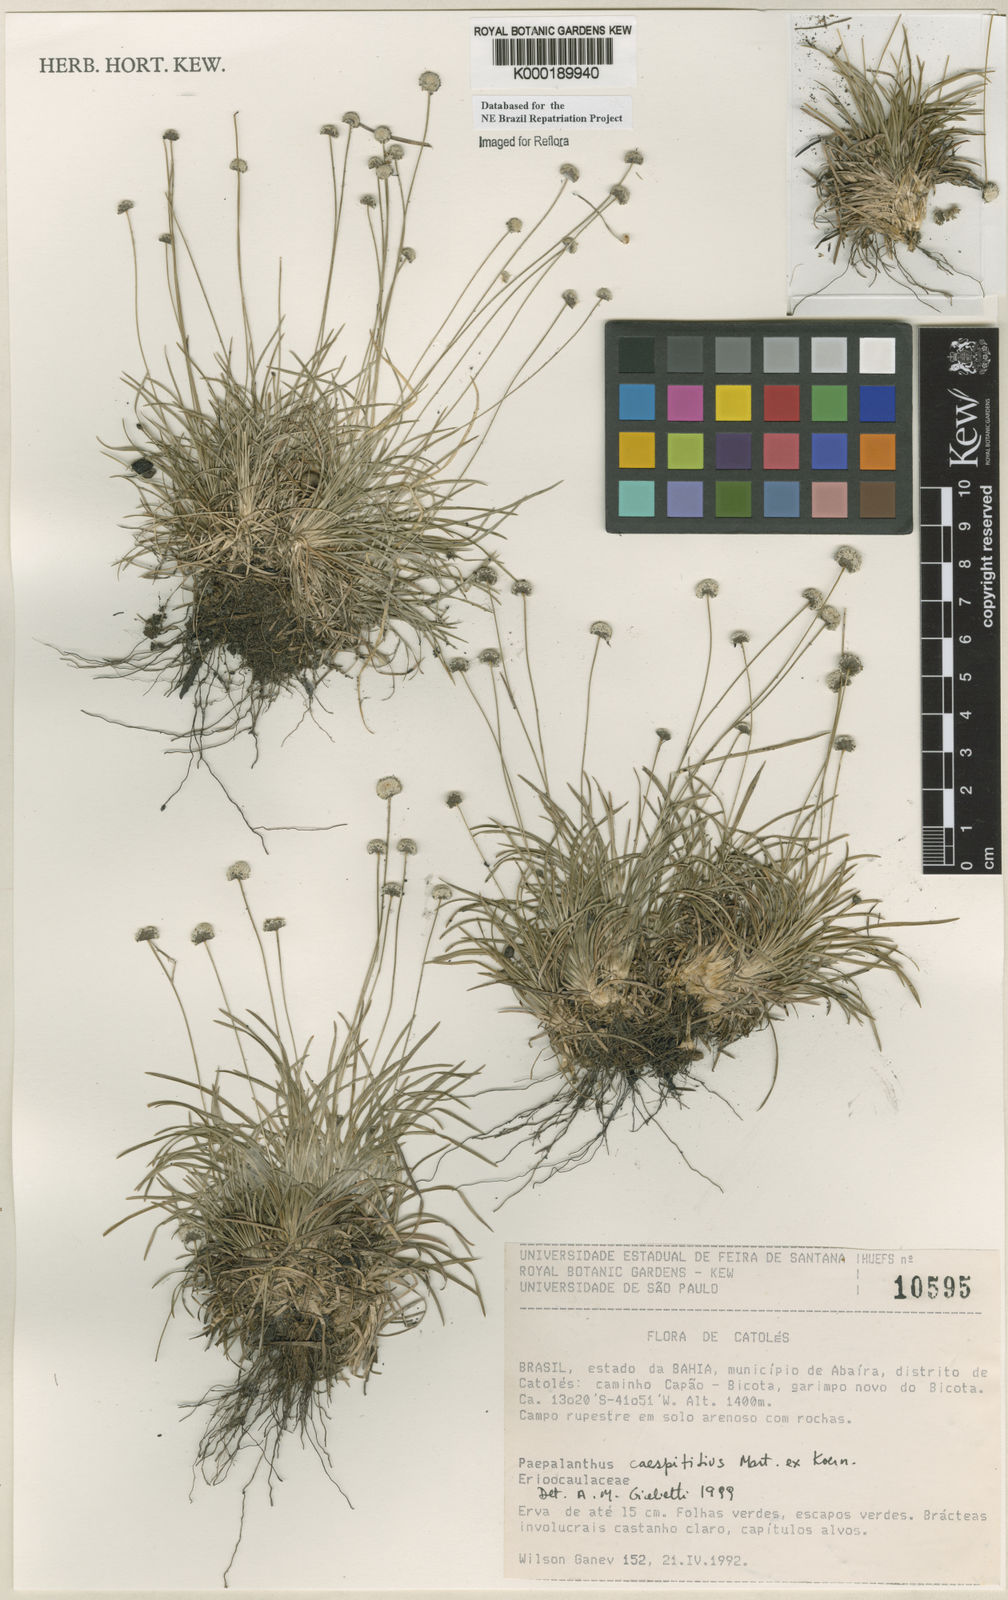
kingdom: Plantae
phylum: Tracheophyta
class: Liliopsida
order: Poales
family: Eriocaulaceae
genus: Paepalanthus
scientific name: Paepalanthus
